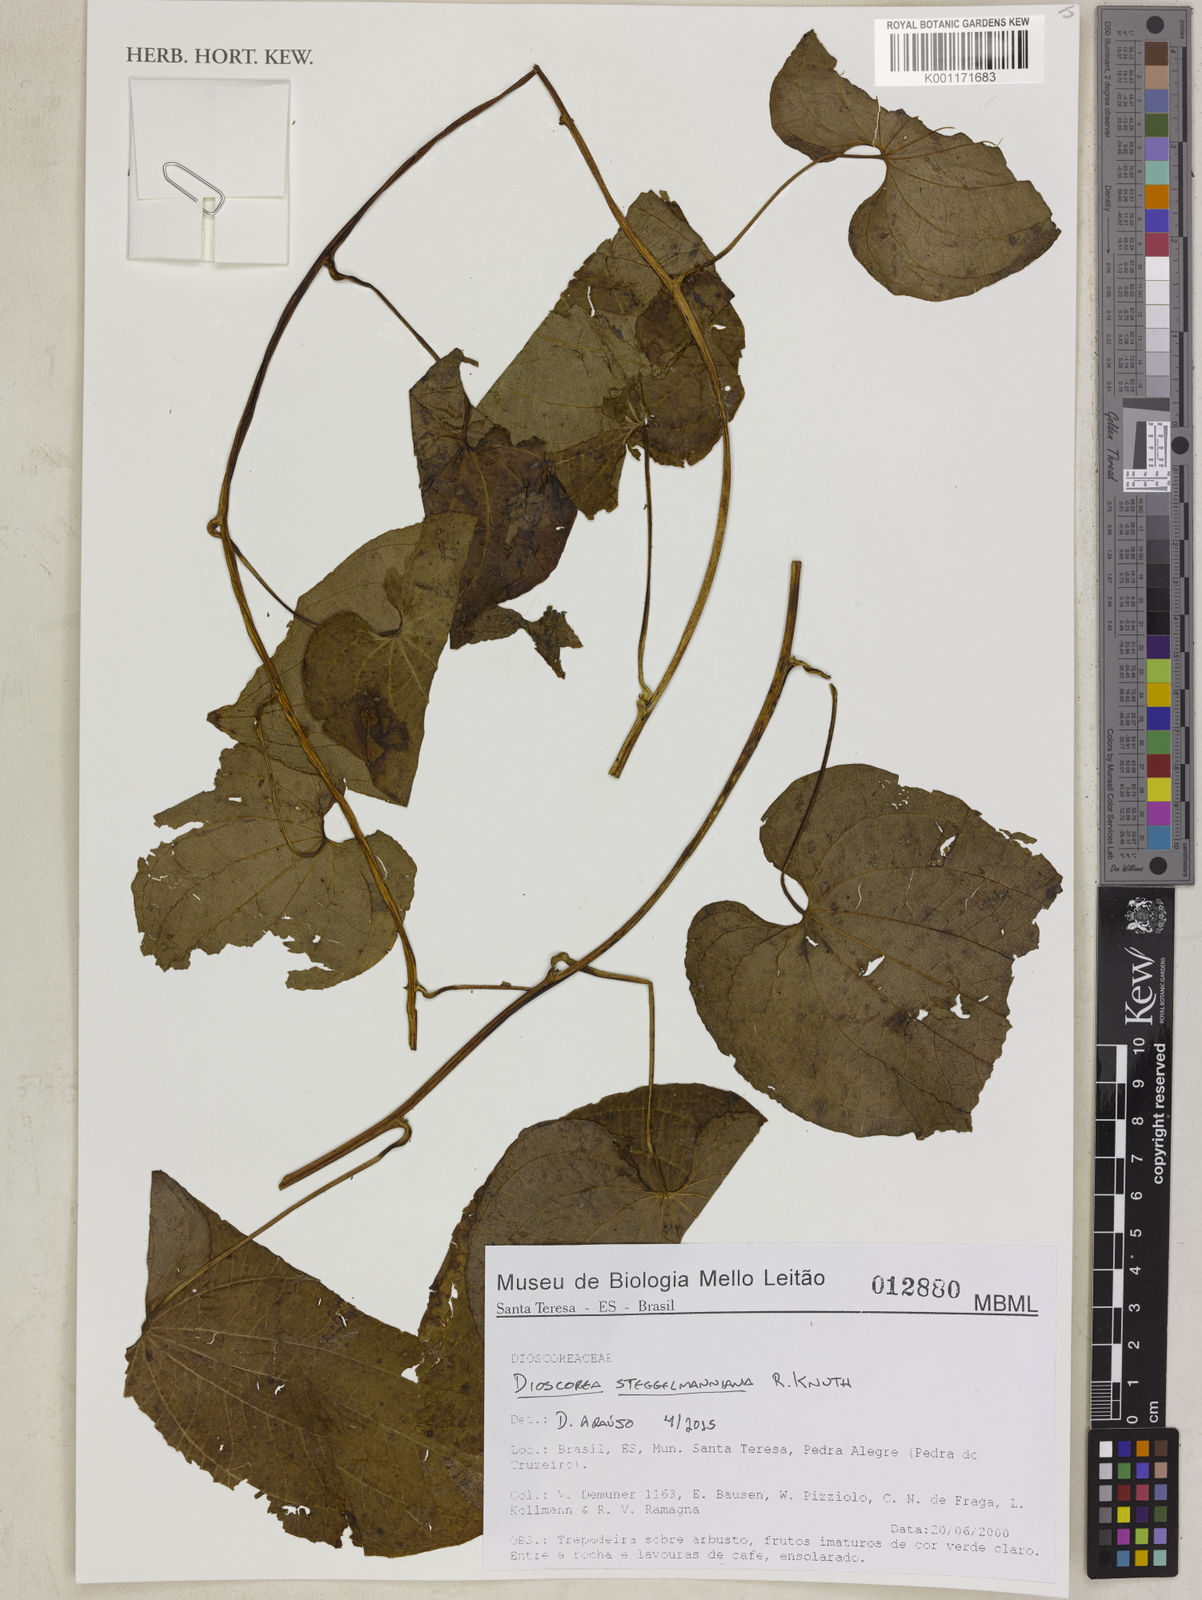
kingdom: Plantae
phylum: Tracheophyta
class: Liliopsida
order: Dioscoreales
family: Dioscoreaceae
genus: Dioscorea
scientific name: Dioscorea stegelmanniana
